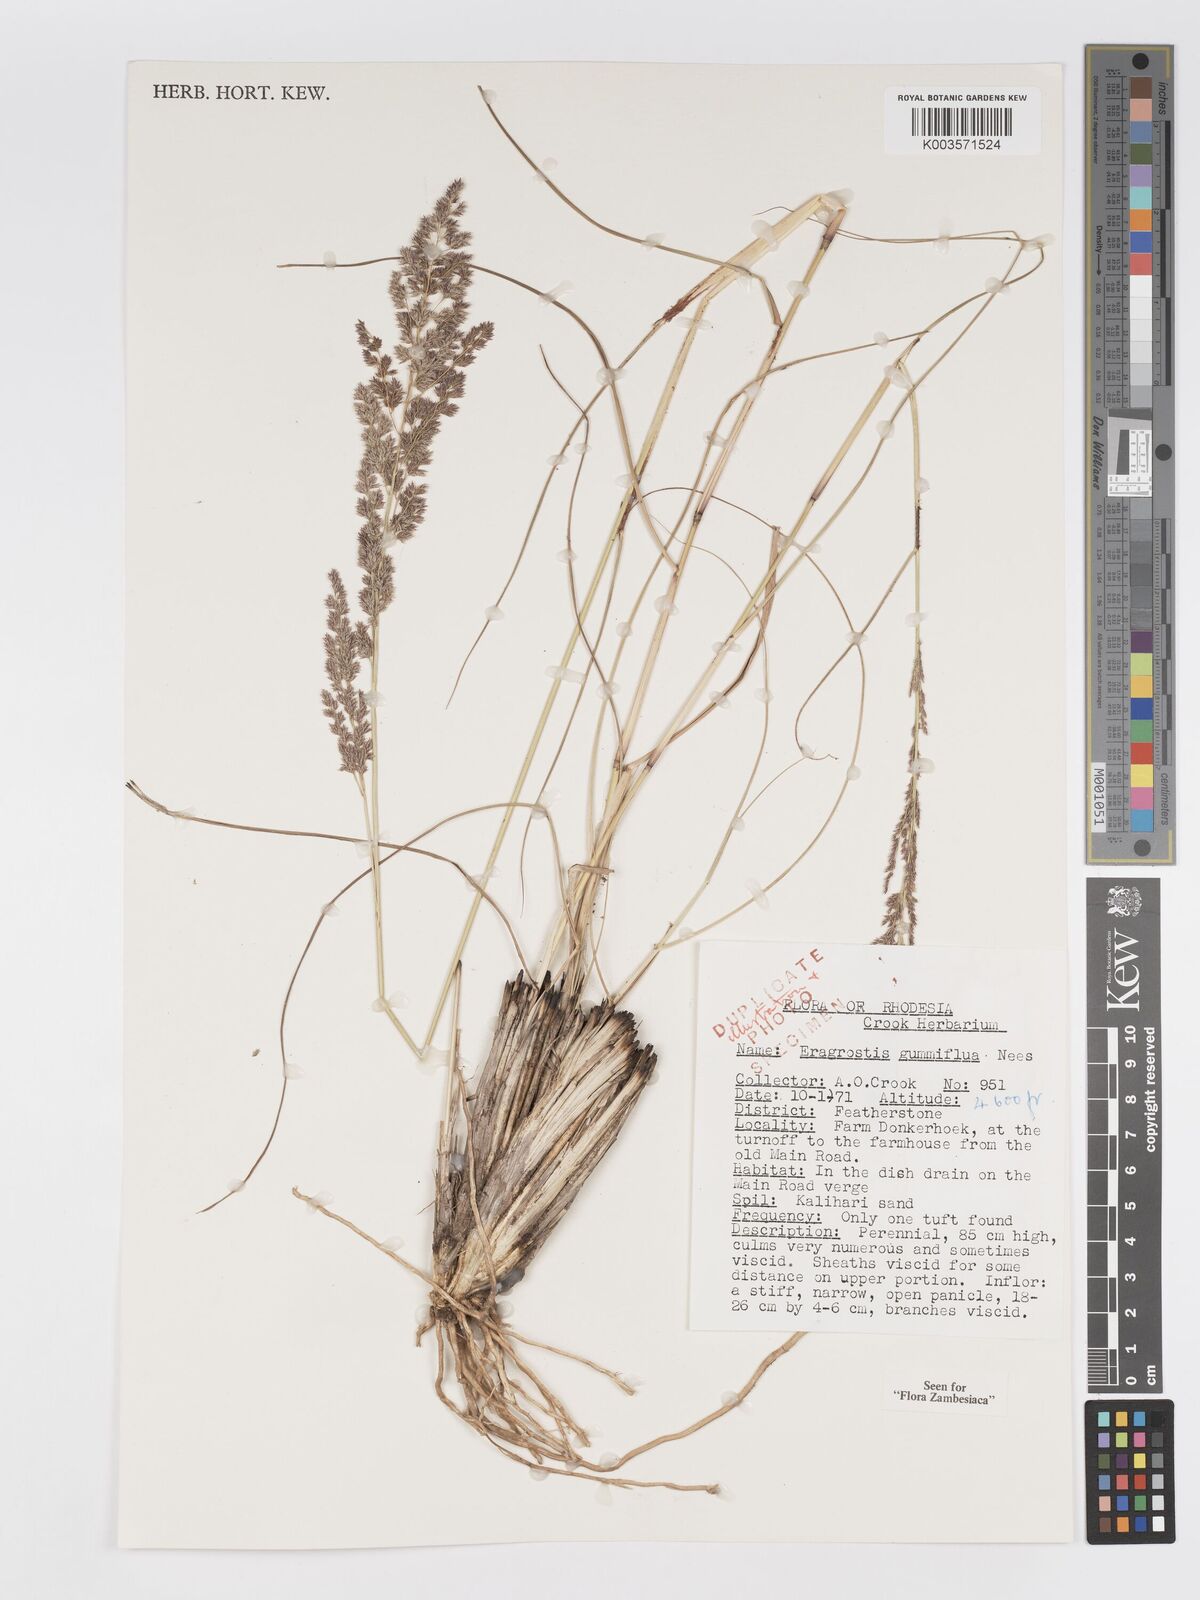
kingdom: Plantae
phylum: Tracheophyta
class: Liliopsida
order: Poales
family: Poaceae
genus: Eragrostis
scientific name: Eragrostis gummiflua
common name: Gum grass
